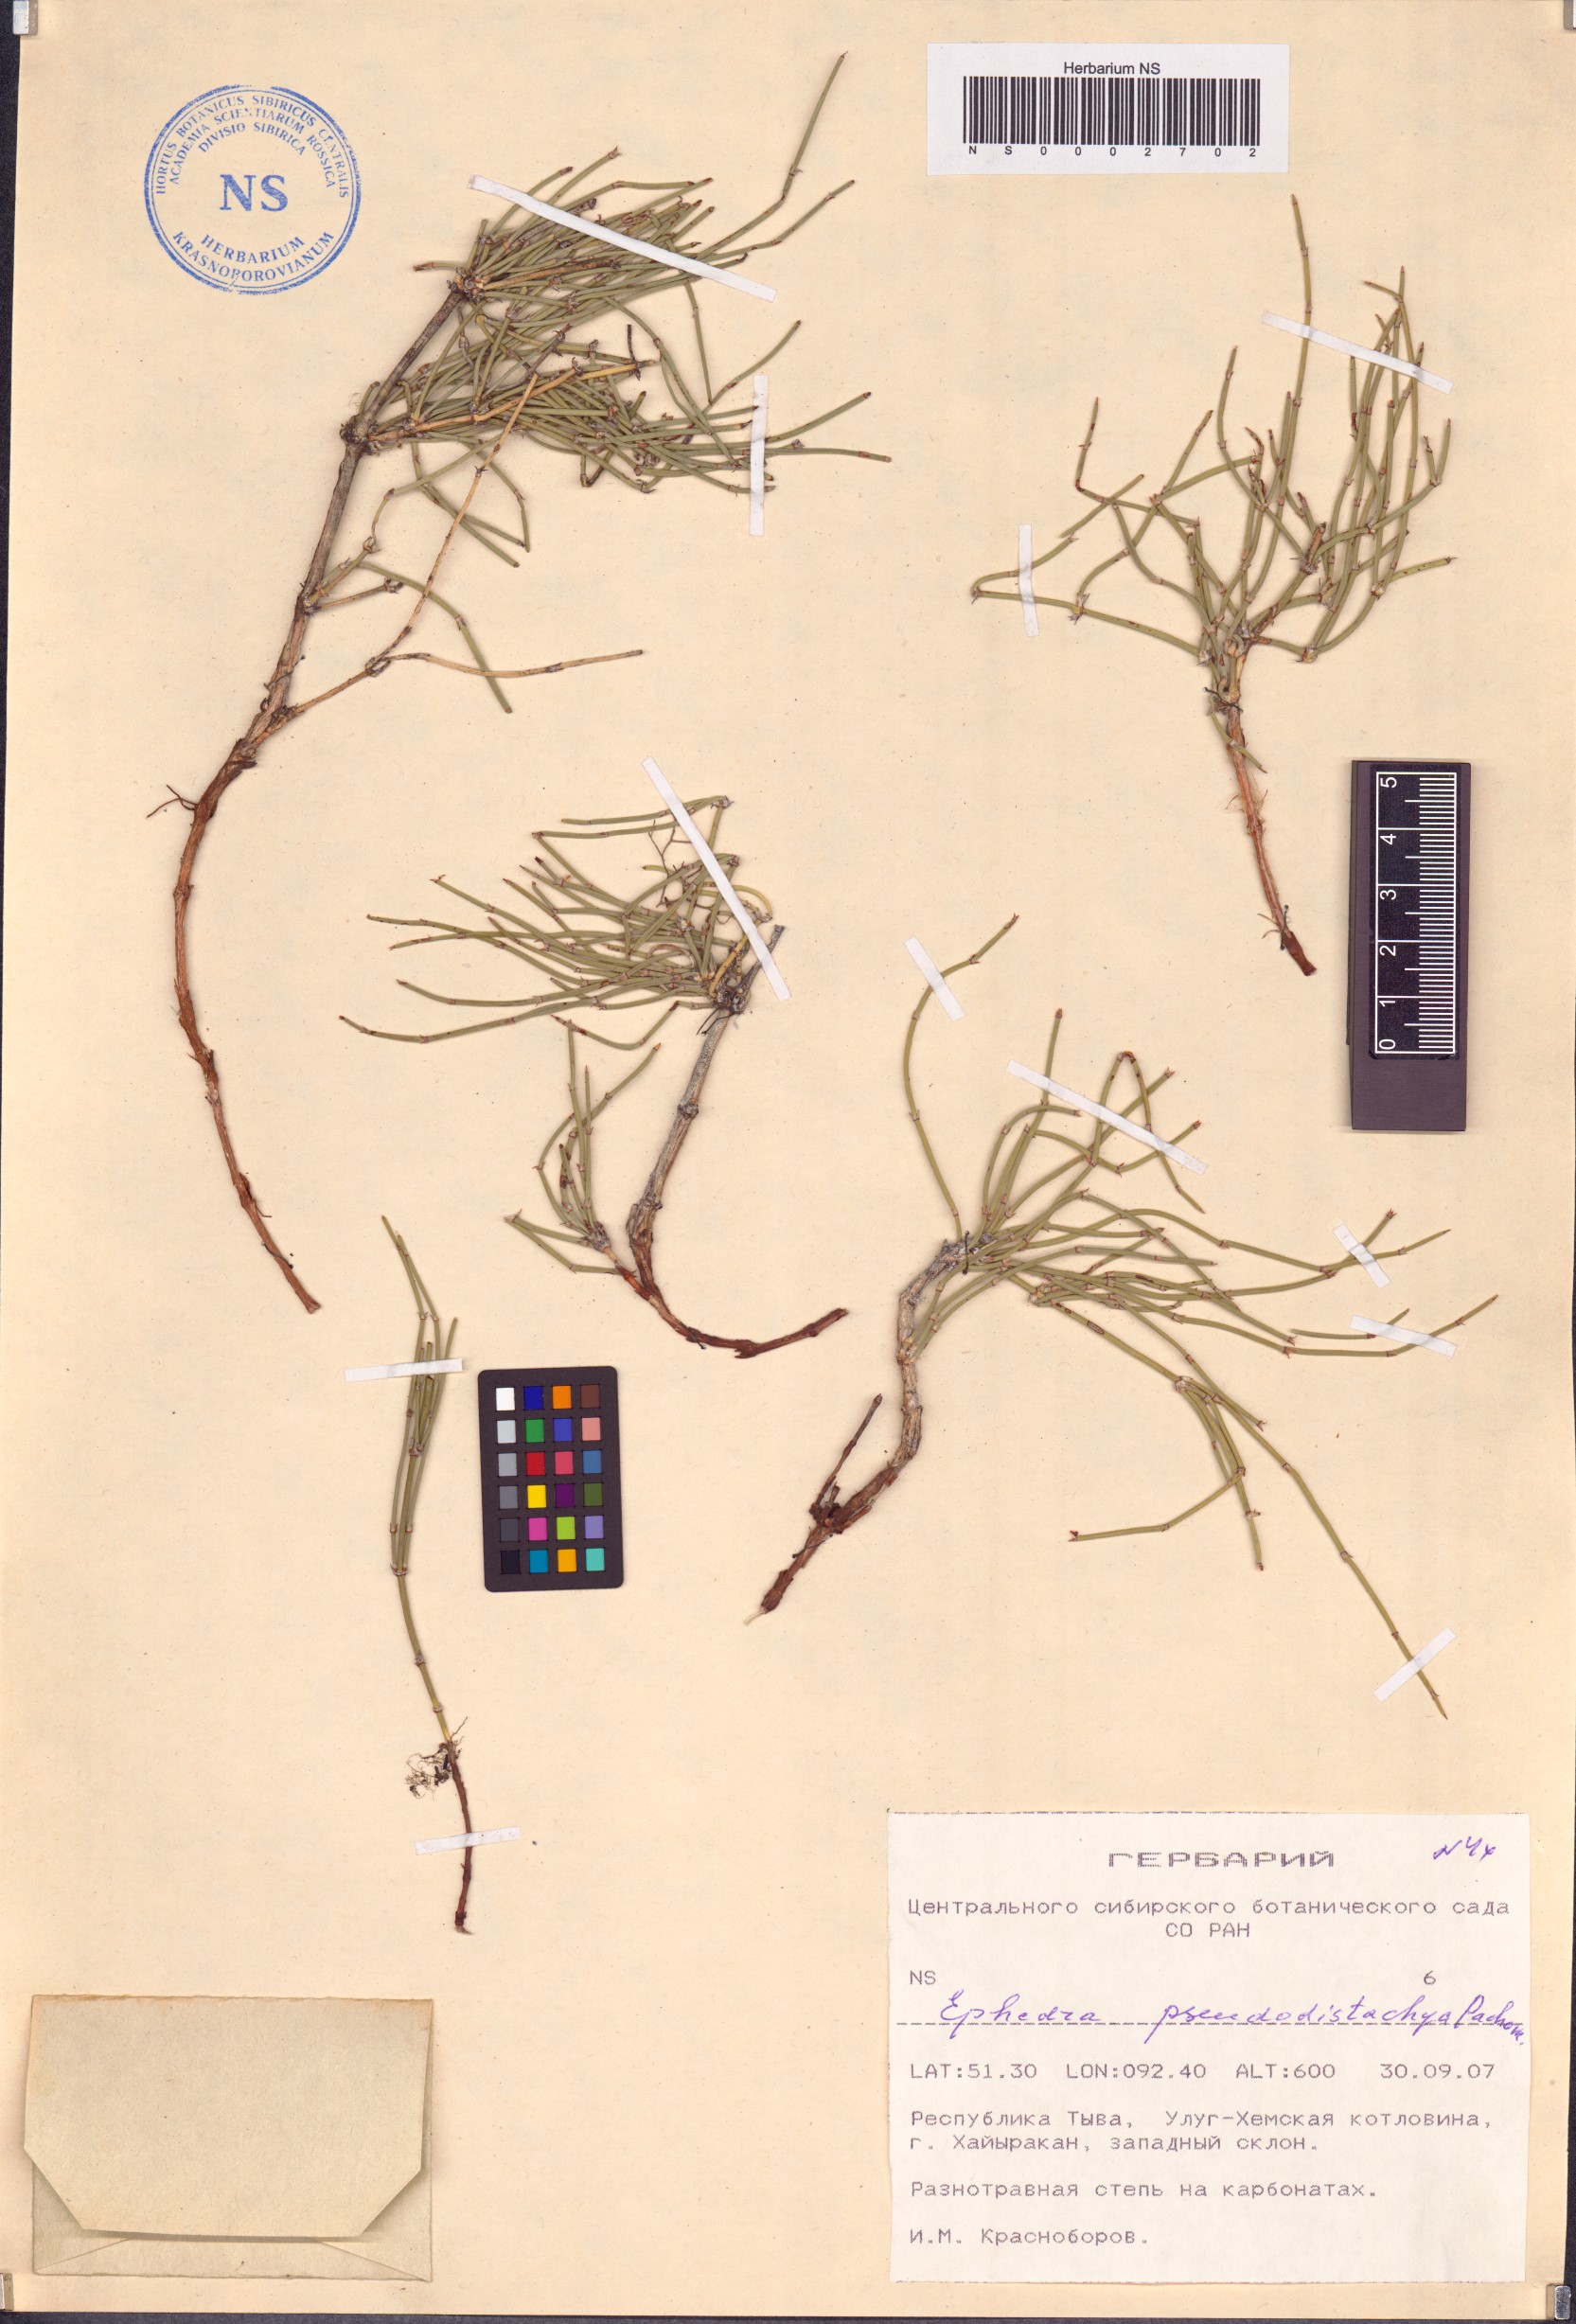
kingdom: Plantae
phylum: Tracheophyta
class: Gnetopsida
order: Ephedrales
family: Ephedraceae
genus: Ephedra
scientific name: Ephedra pseudodistachya
